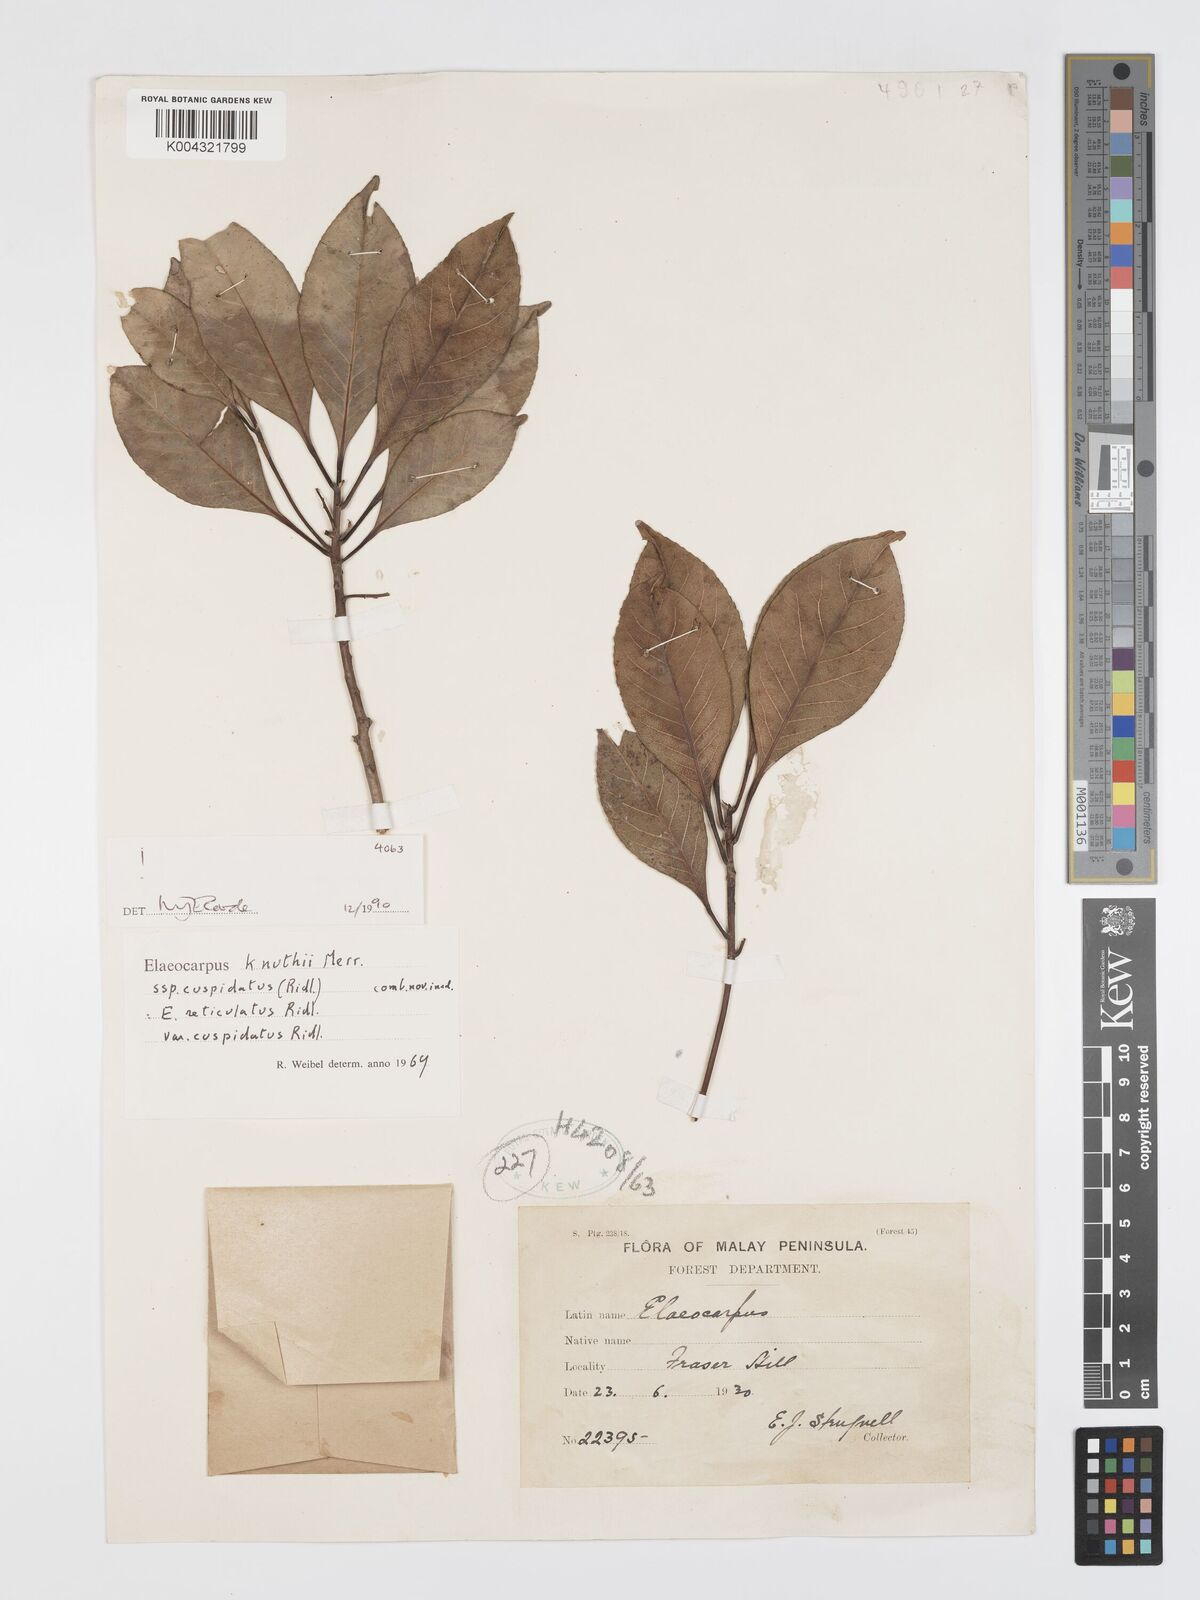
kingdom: Plantae
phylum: Tracheophyta
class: Magnoliopsida
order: Oxalidales
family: Elaeocarpaceae
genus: Elaeocarpus
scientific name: Elaeocarpus knuthii
